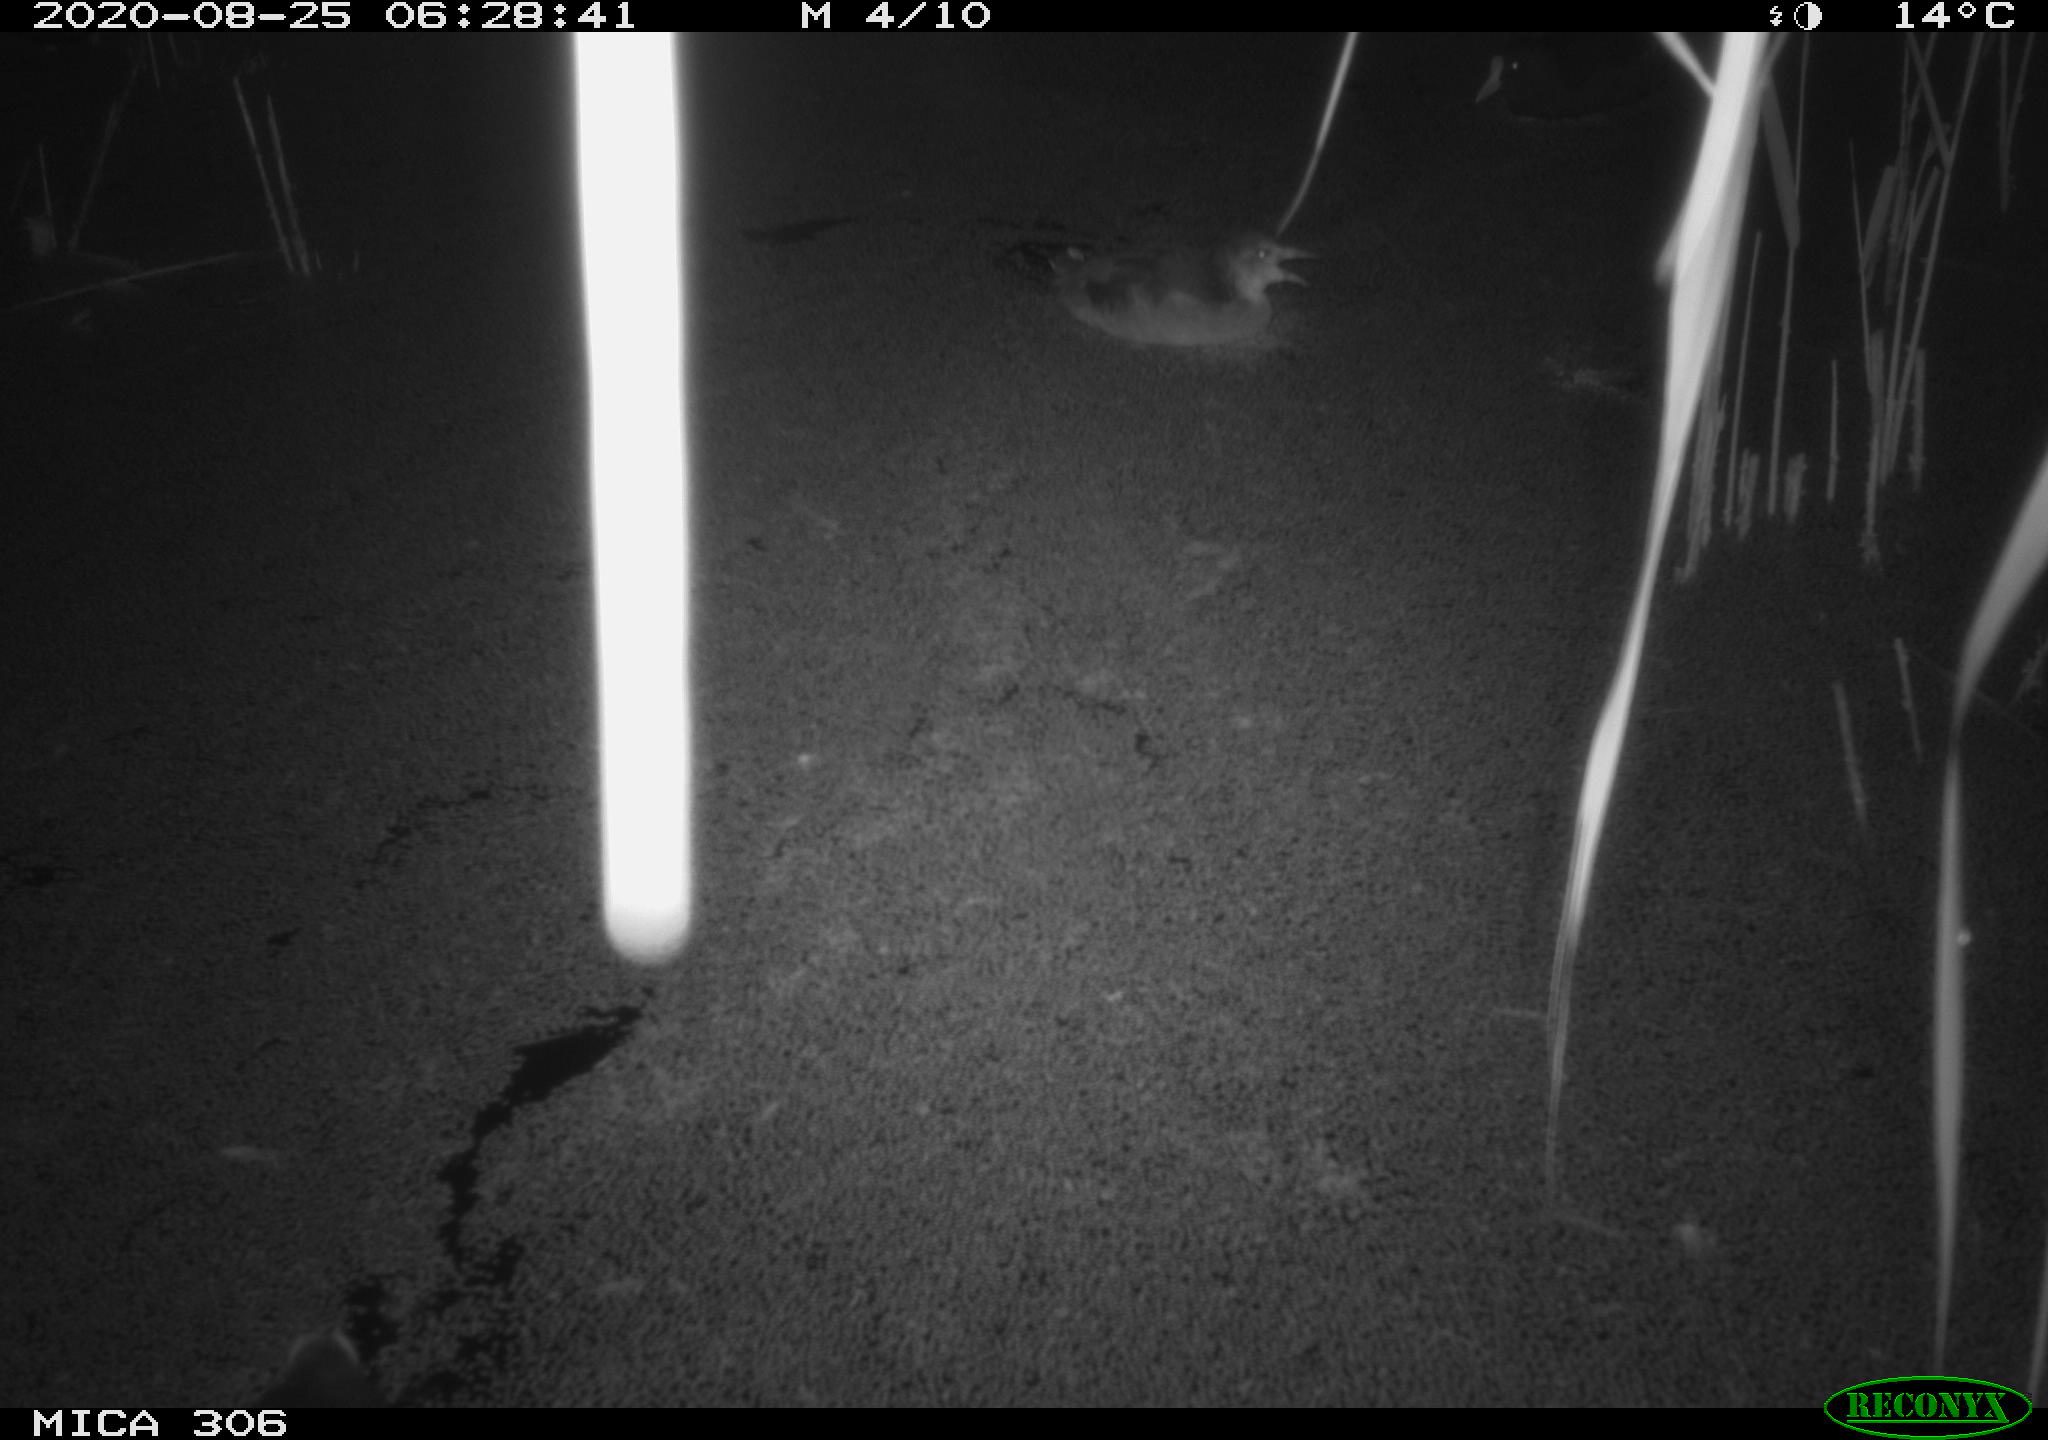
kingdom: Animalia
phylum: Chordata
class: Aves
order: Gruiformes
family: Rallidae
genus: Fulica
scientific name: Fulica atra
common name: Eurasian coot
